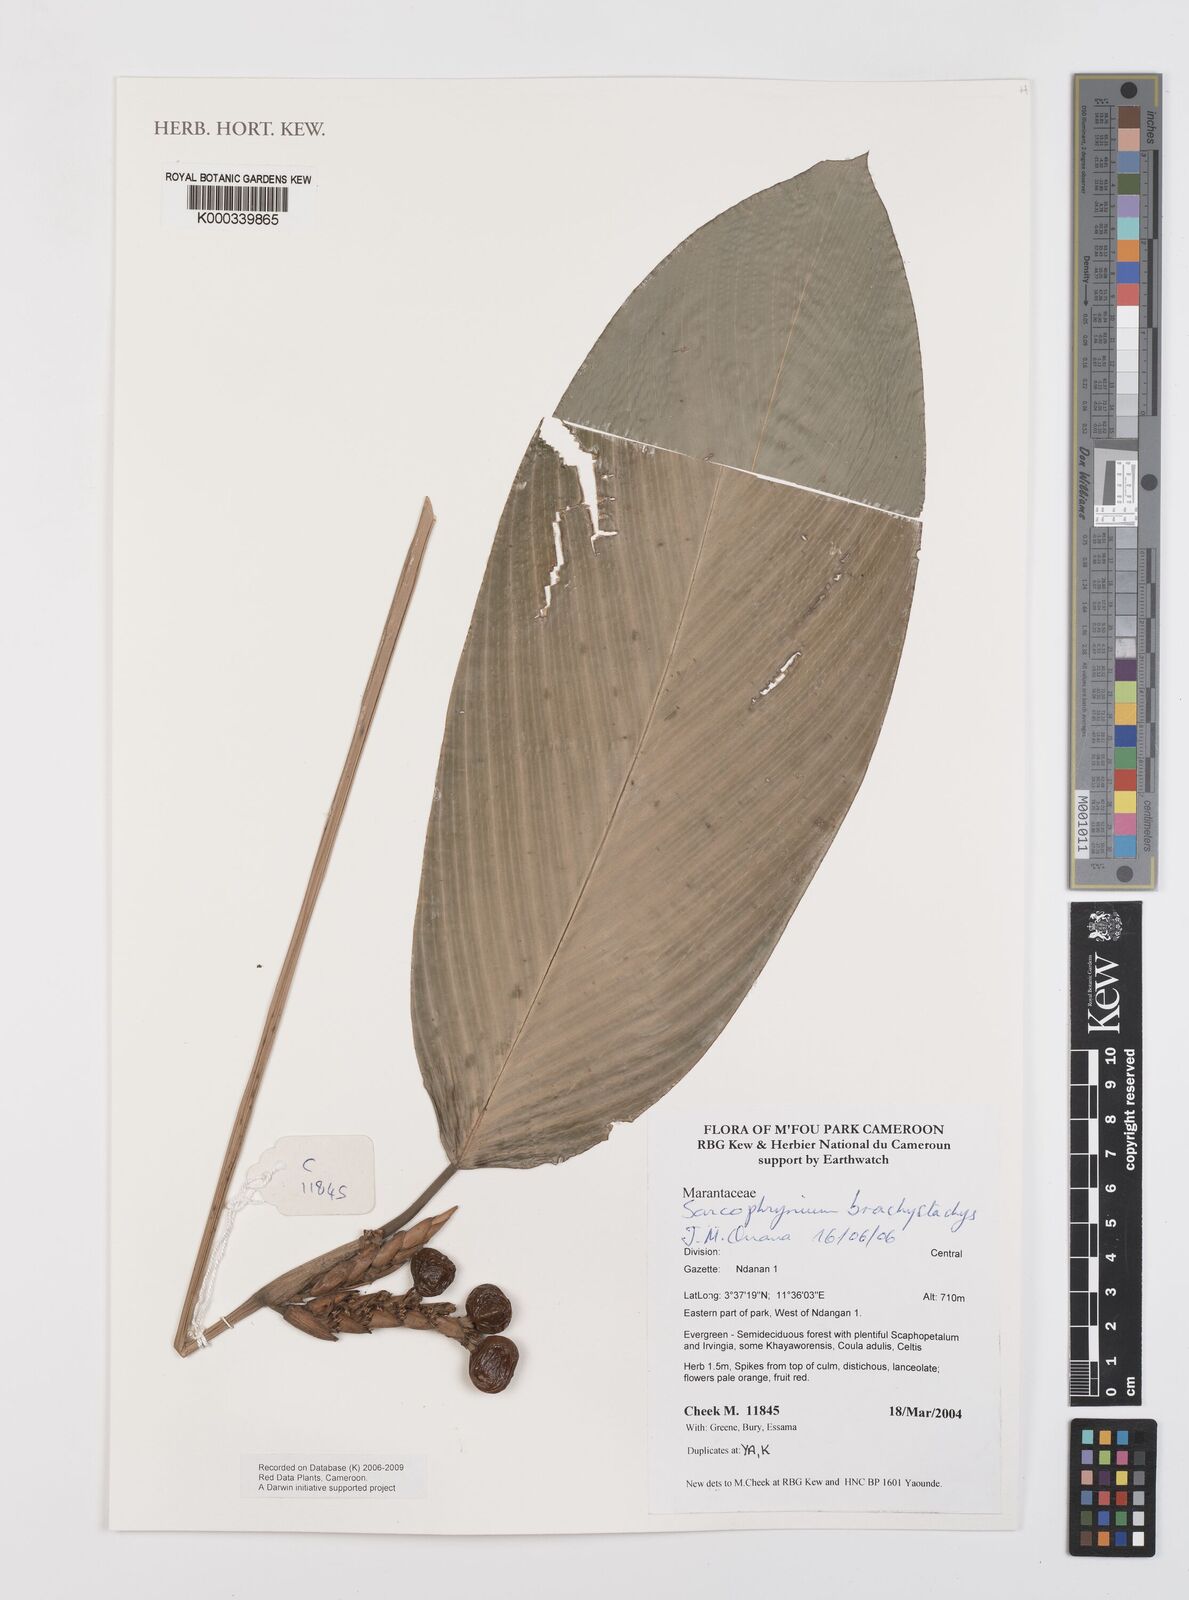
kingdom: Plantae
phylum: Tracheophyta
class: Liliopsida
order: Zingiberales
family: Marantaceae
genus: Sarcophrynium
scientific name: Sarcophrynium
